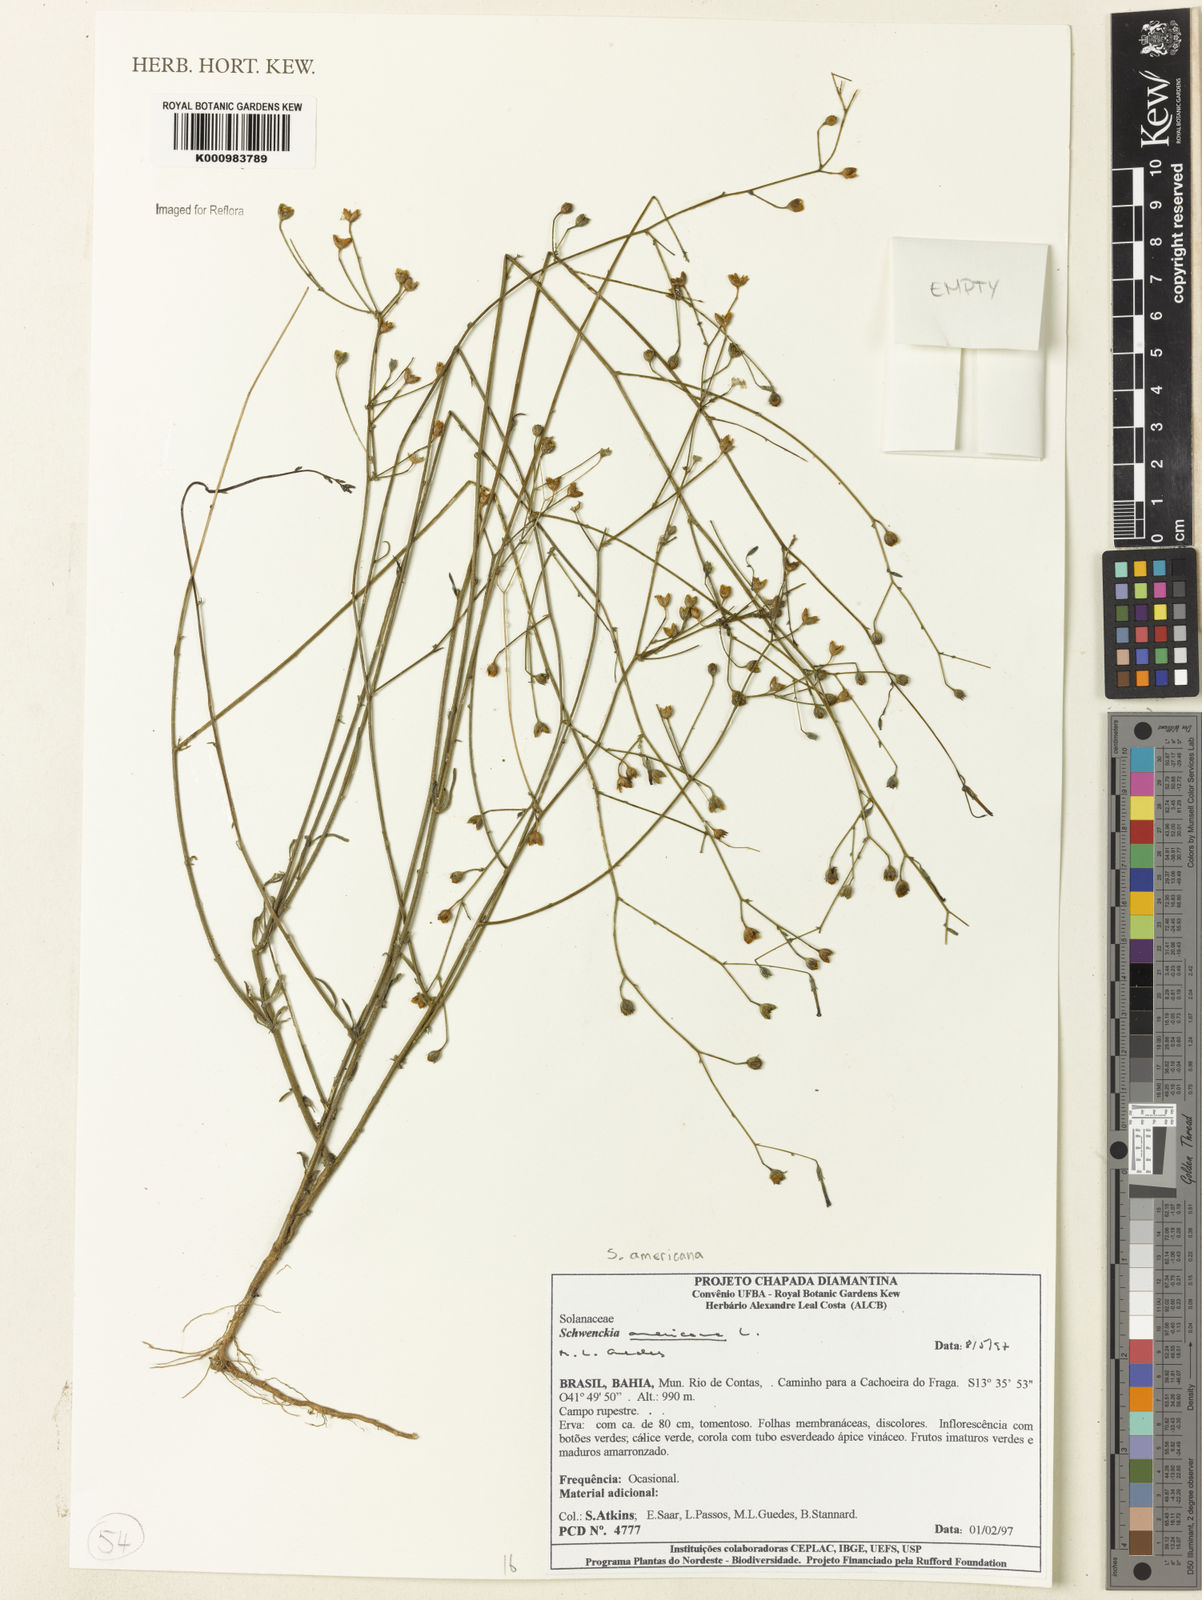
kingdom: Plantae
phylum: Tracheophyta
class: Magnoliopsida
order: Solanales
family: Solanaceae
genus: Schwenckia
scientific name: Schwenckia americana
